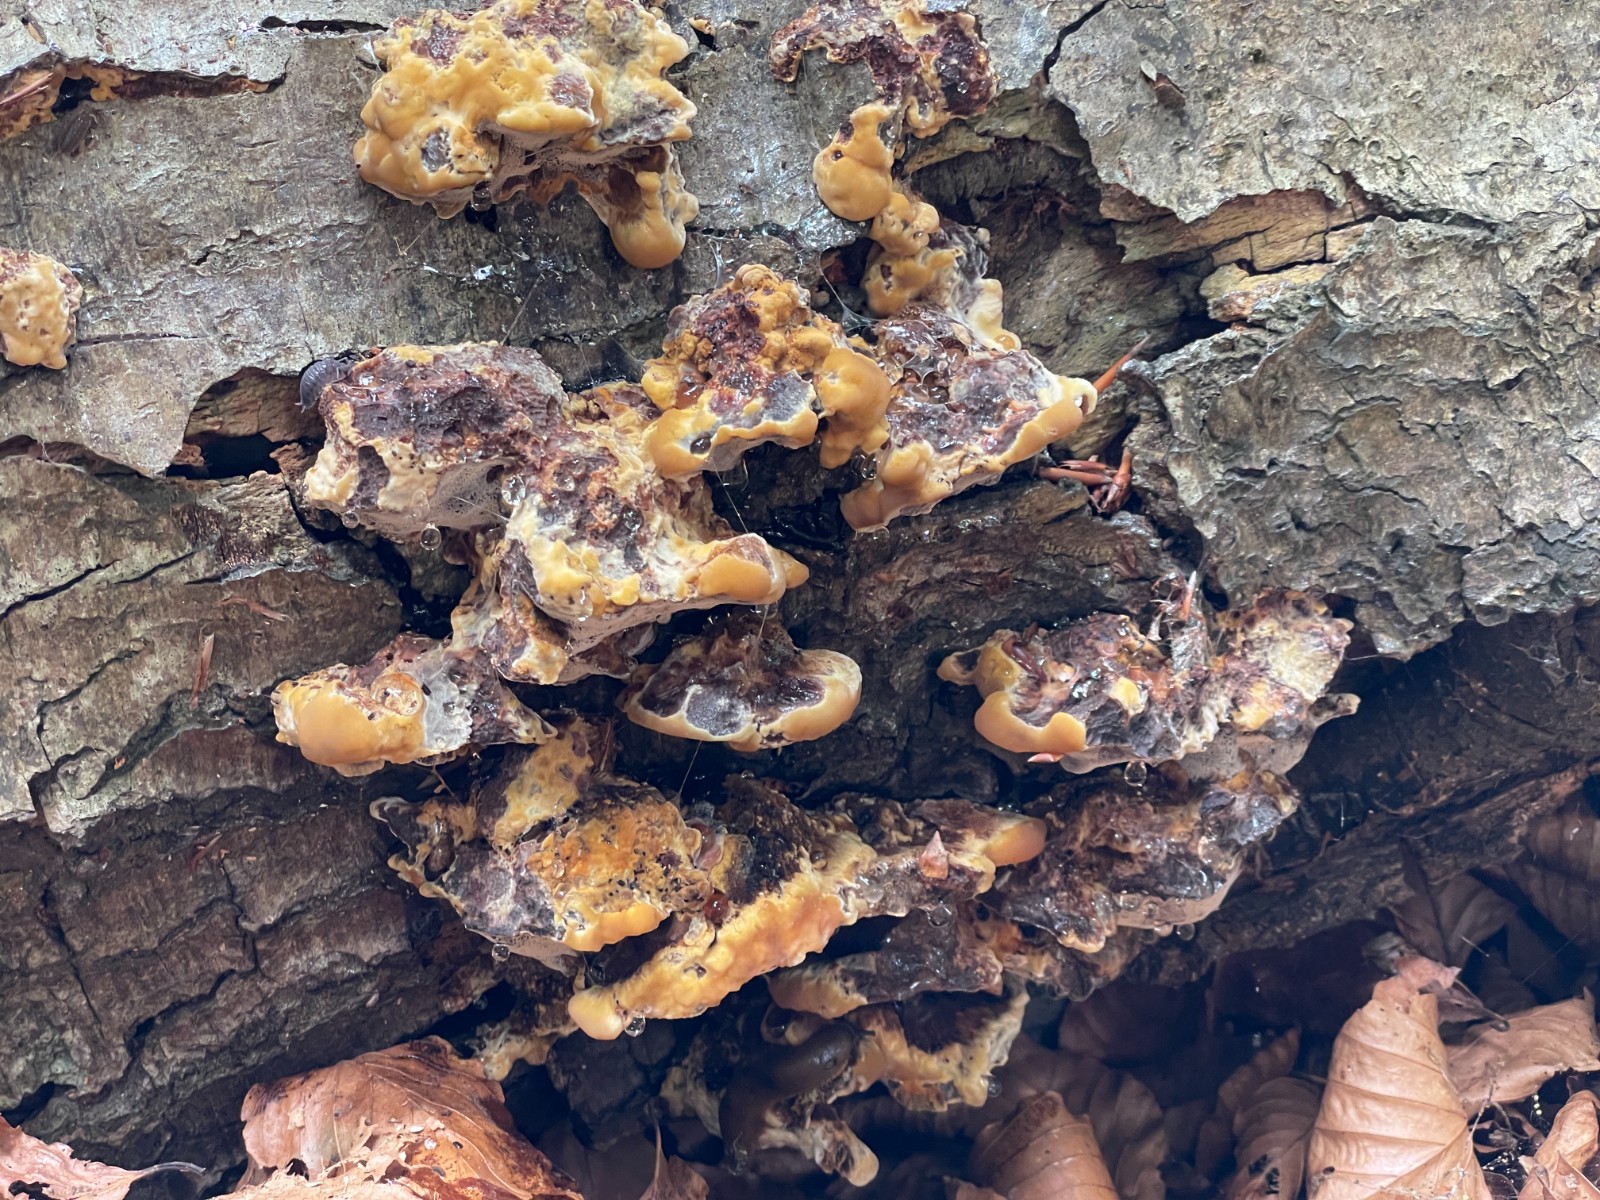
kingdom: Fungi
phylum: Basidiomycota
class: Agaricomycetes
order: Hymenochaetales
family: Hymenochaetaceae
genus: Mensularia
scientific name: Mensularia nodulosa
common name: bøge-spejlporesvamp
